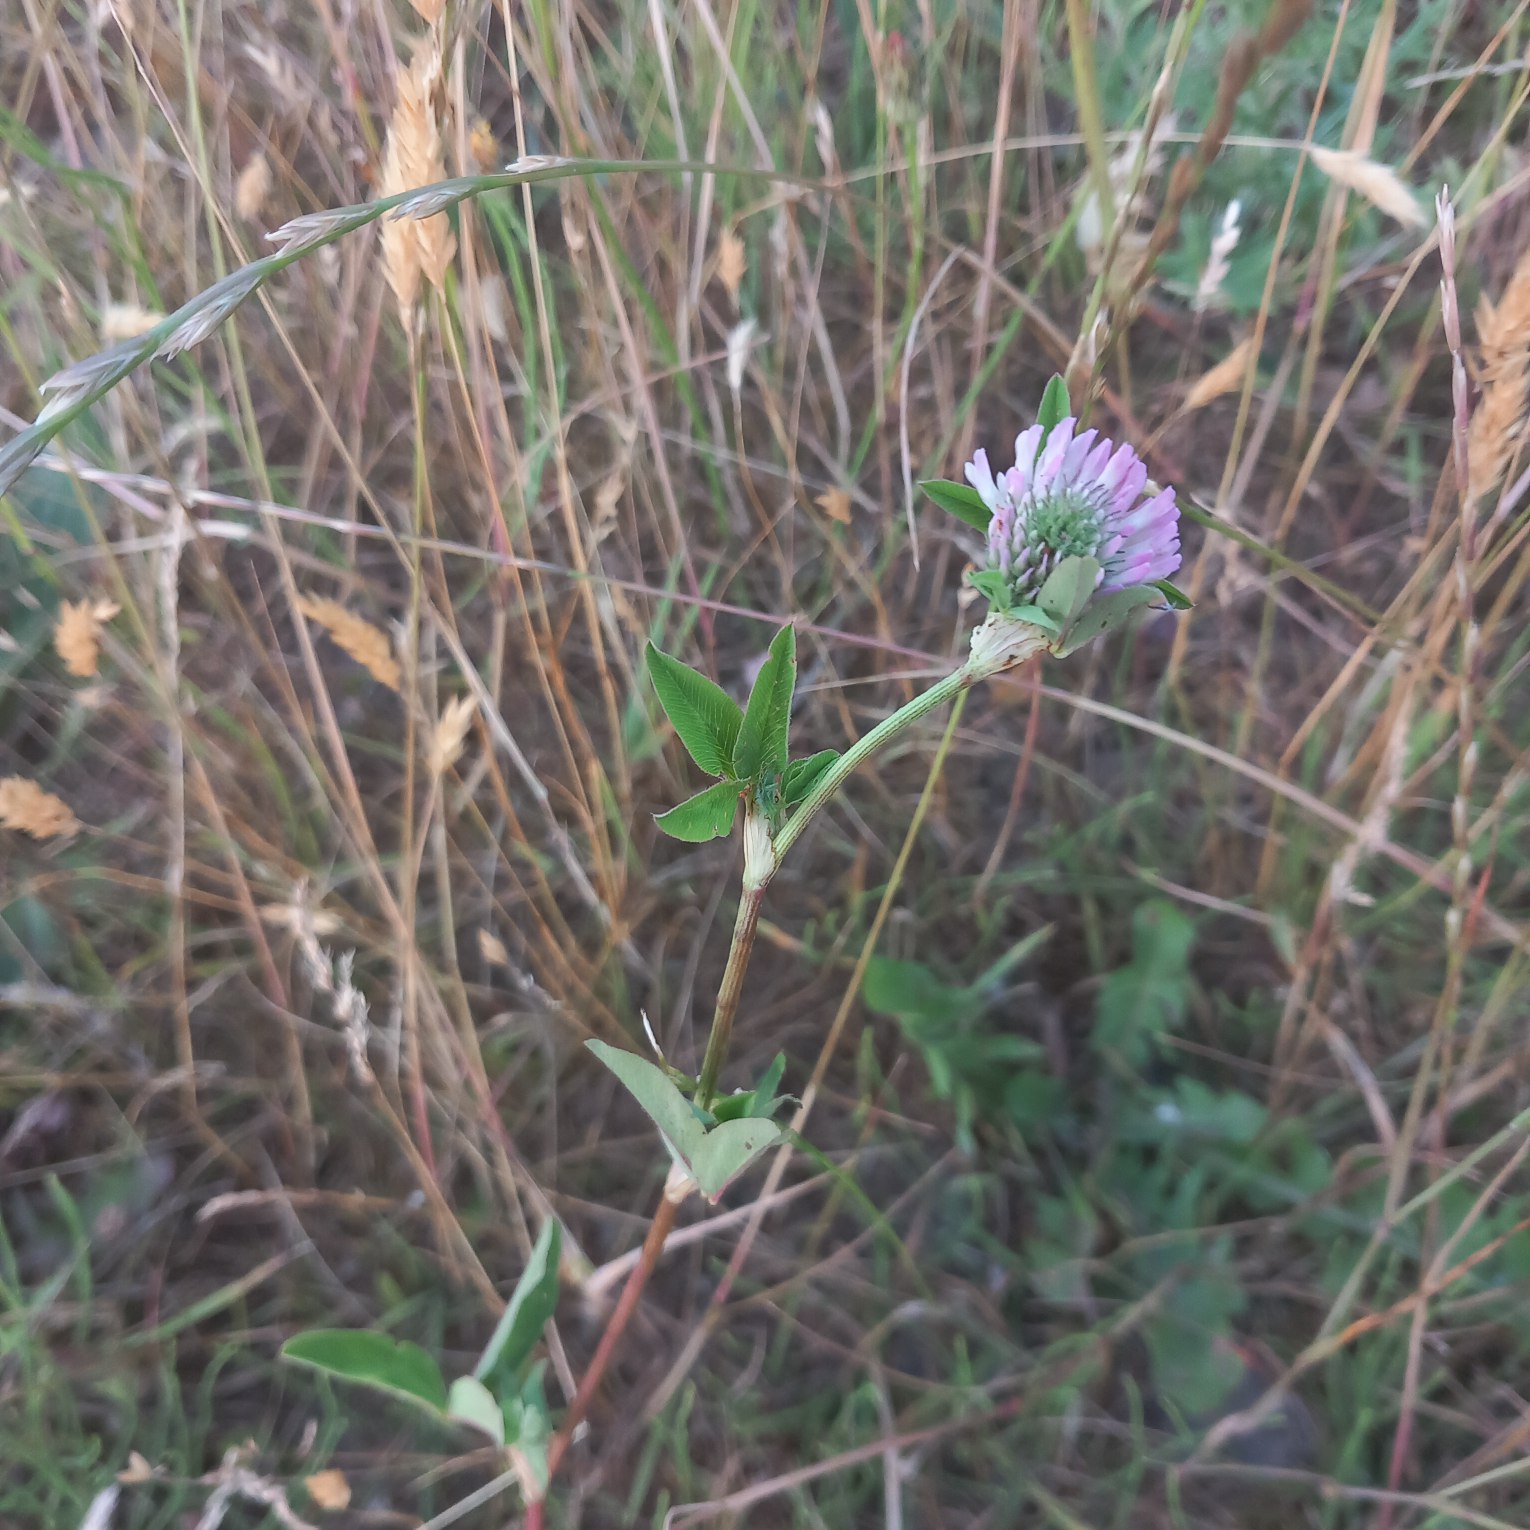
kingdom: Plantae
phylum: Tracheophyta
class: Magnoliopsida
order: Fabales
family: Fabaceae
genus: Trifolium
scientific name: Trifolium pratense
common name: Rød-kløver
